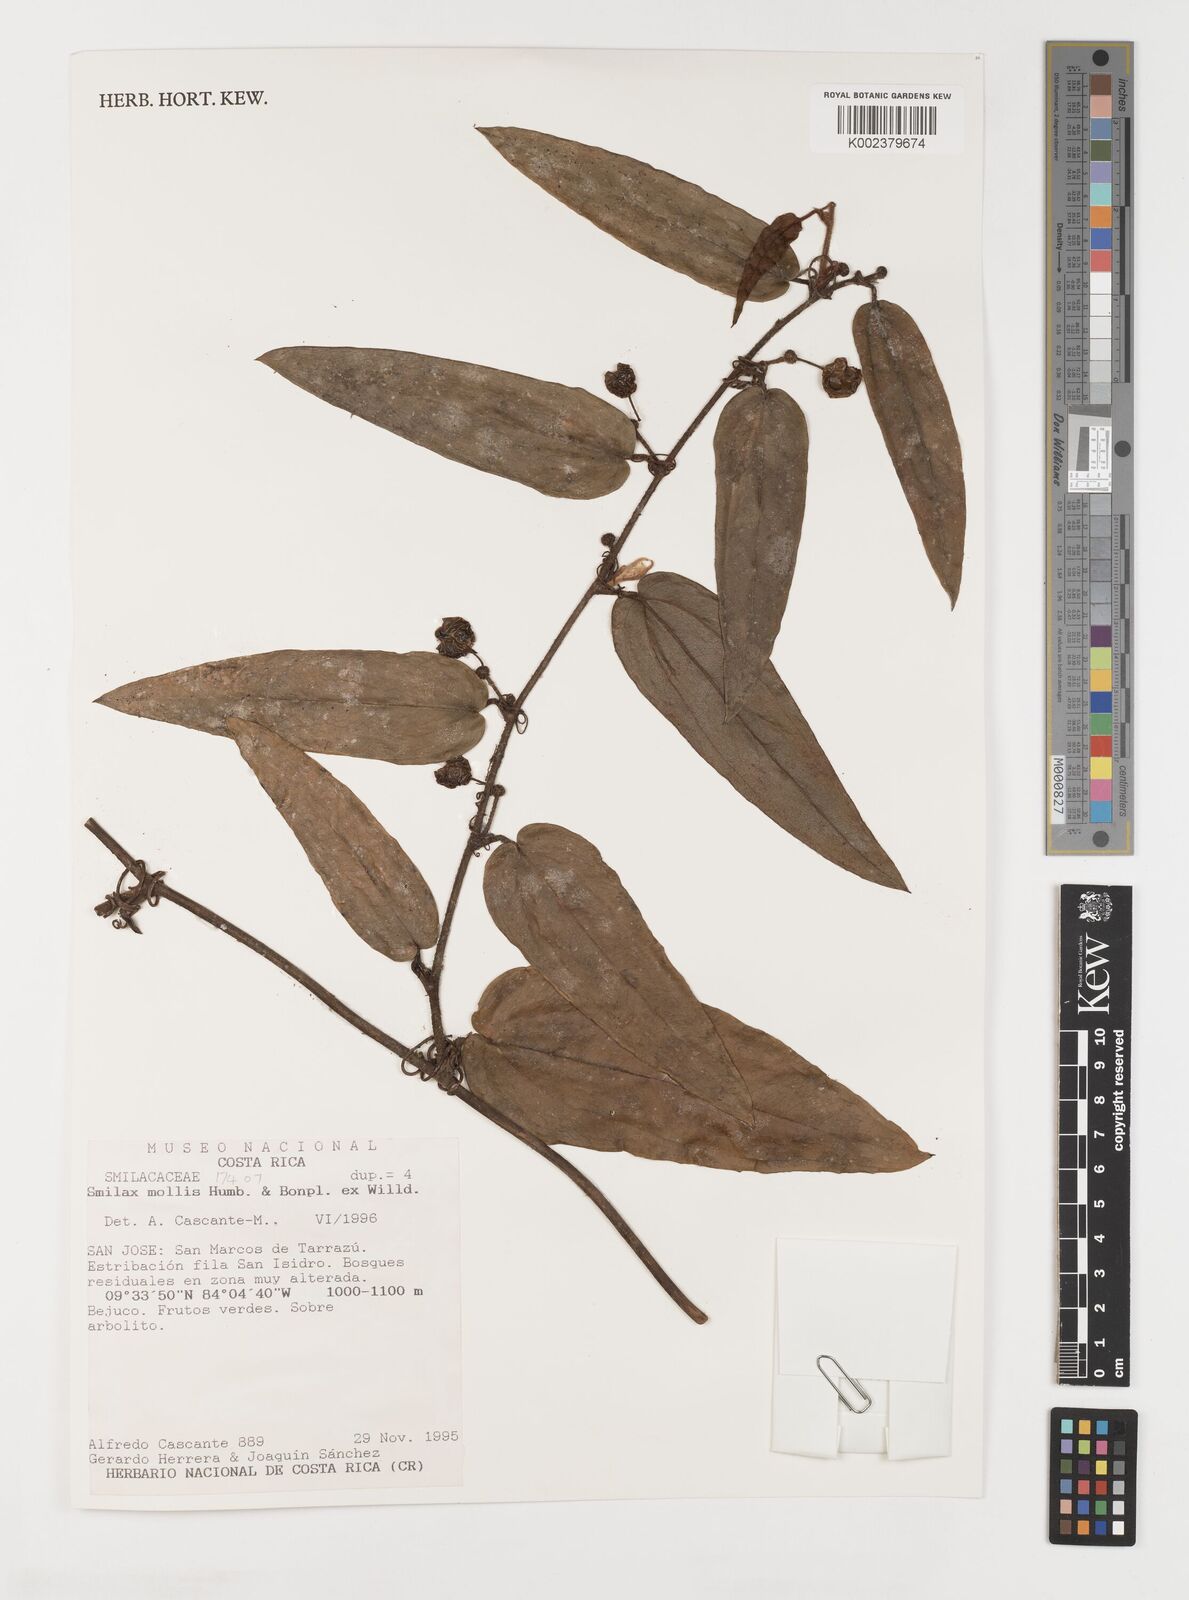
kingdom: Plantae
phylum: Tracheophyta
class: Liliopsida
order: Liliales
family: Smilacaceae
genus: Smilax
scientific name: Smilax mollis
